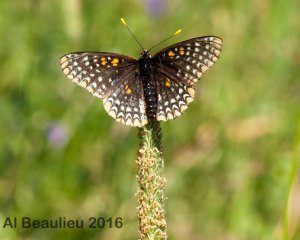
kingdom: Animalia
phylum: Arthropoda
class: Insecta
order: Lepidoptera
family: Nymphalidae
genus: Euphydryas
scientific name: Euphydryas phaeton
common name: Baltimore Checkerspot
